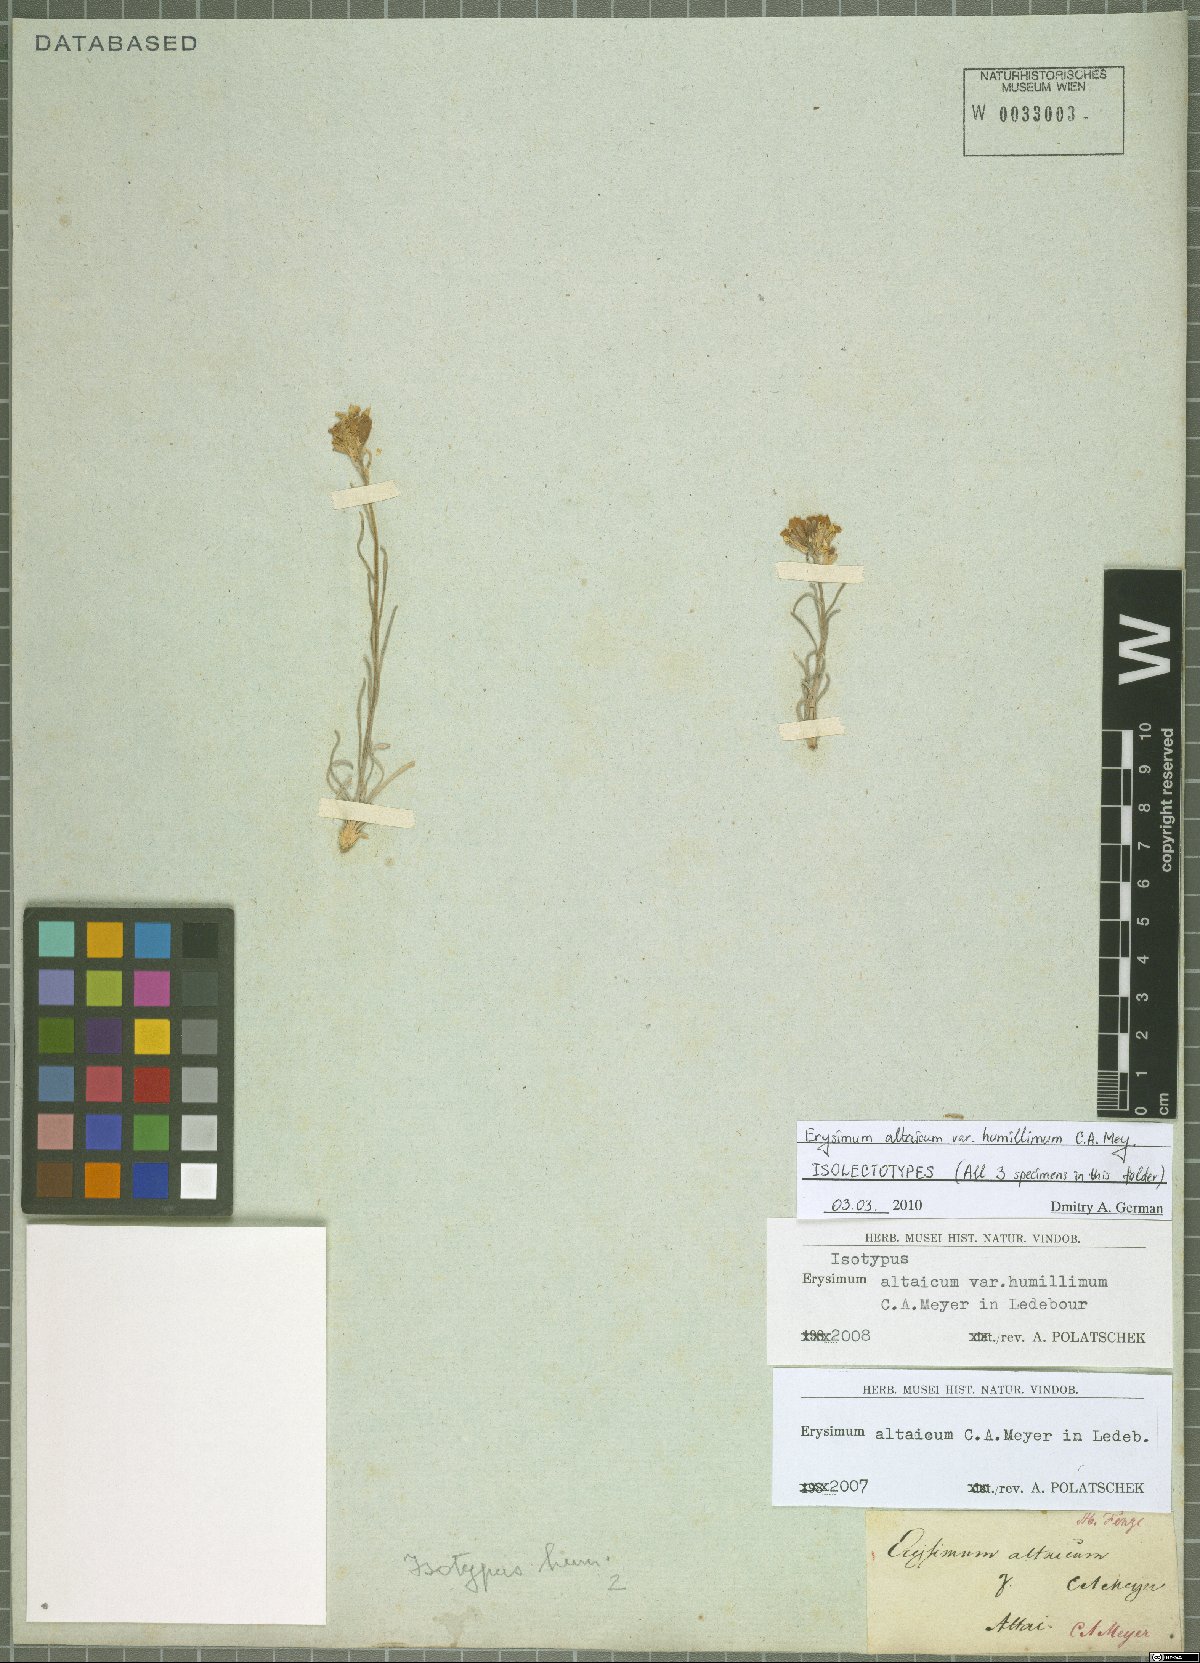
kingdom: Plantae
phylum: Tracheophyta
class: Magnoliopsida
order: Brassicales
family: Brassicaceae
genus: Erysimum
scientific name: Erysimum altaicum
